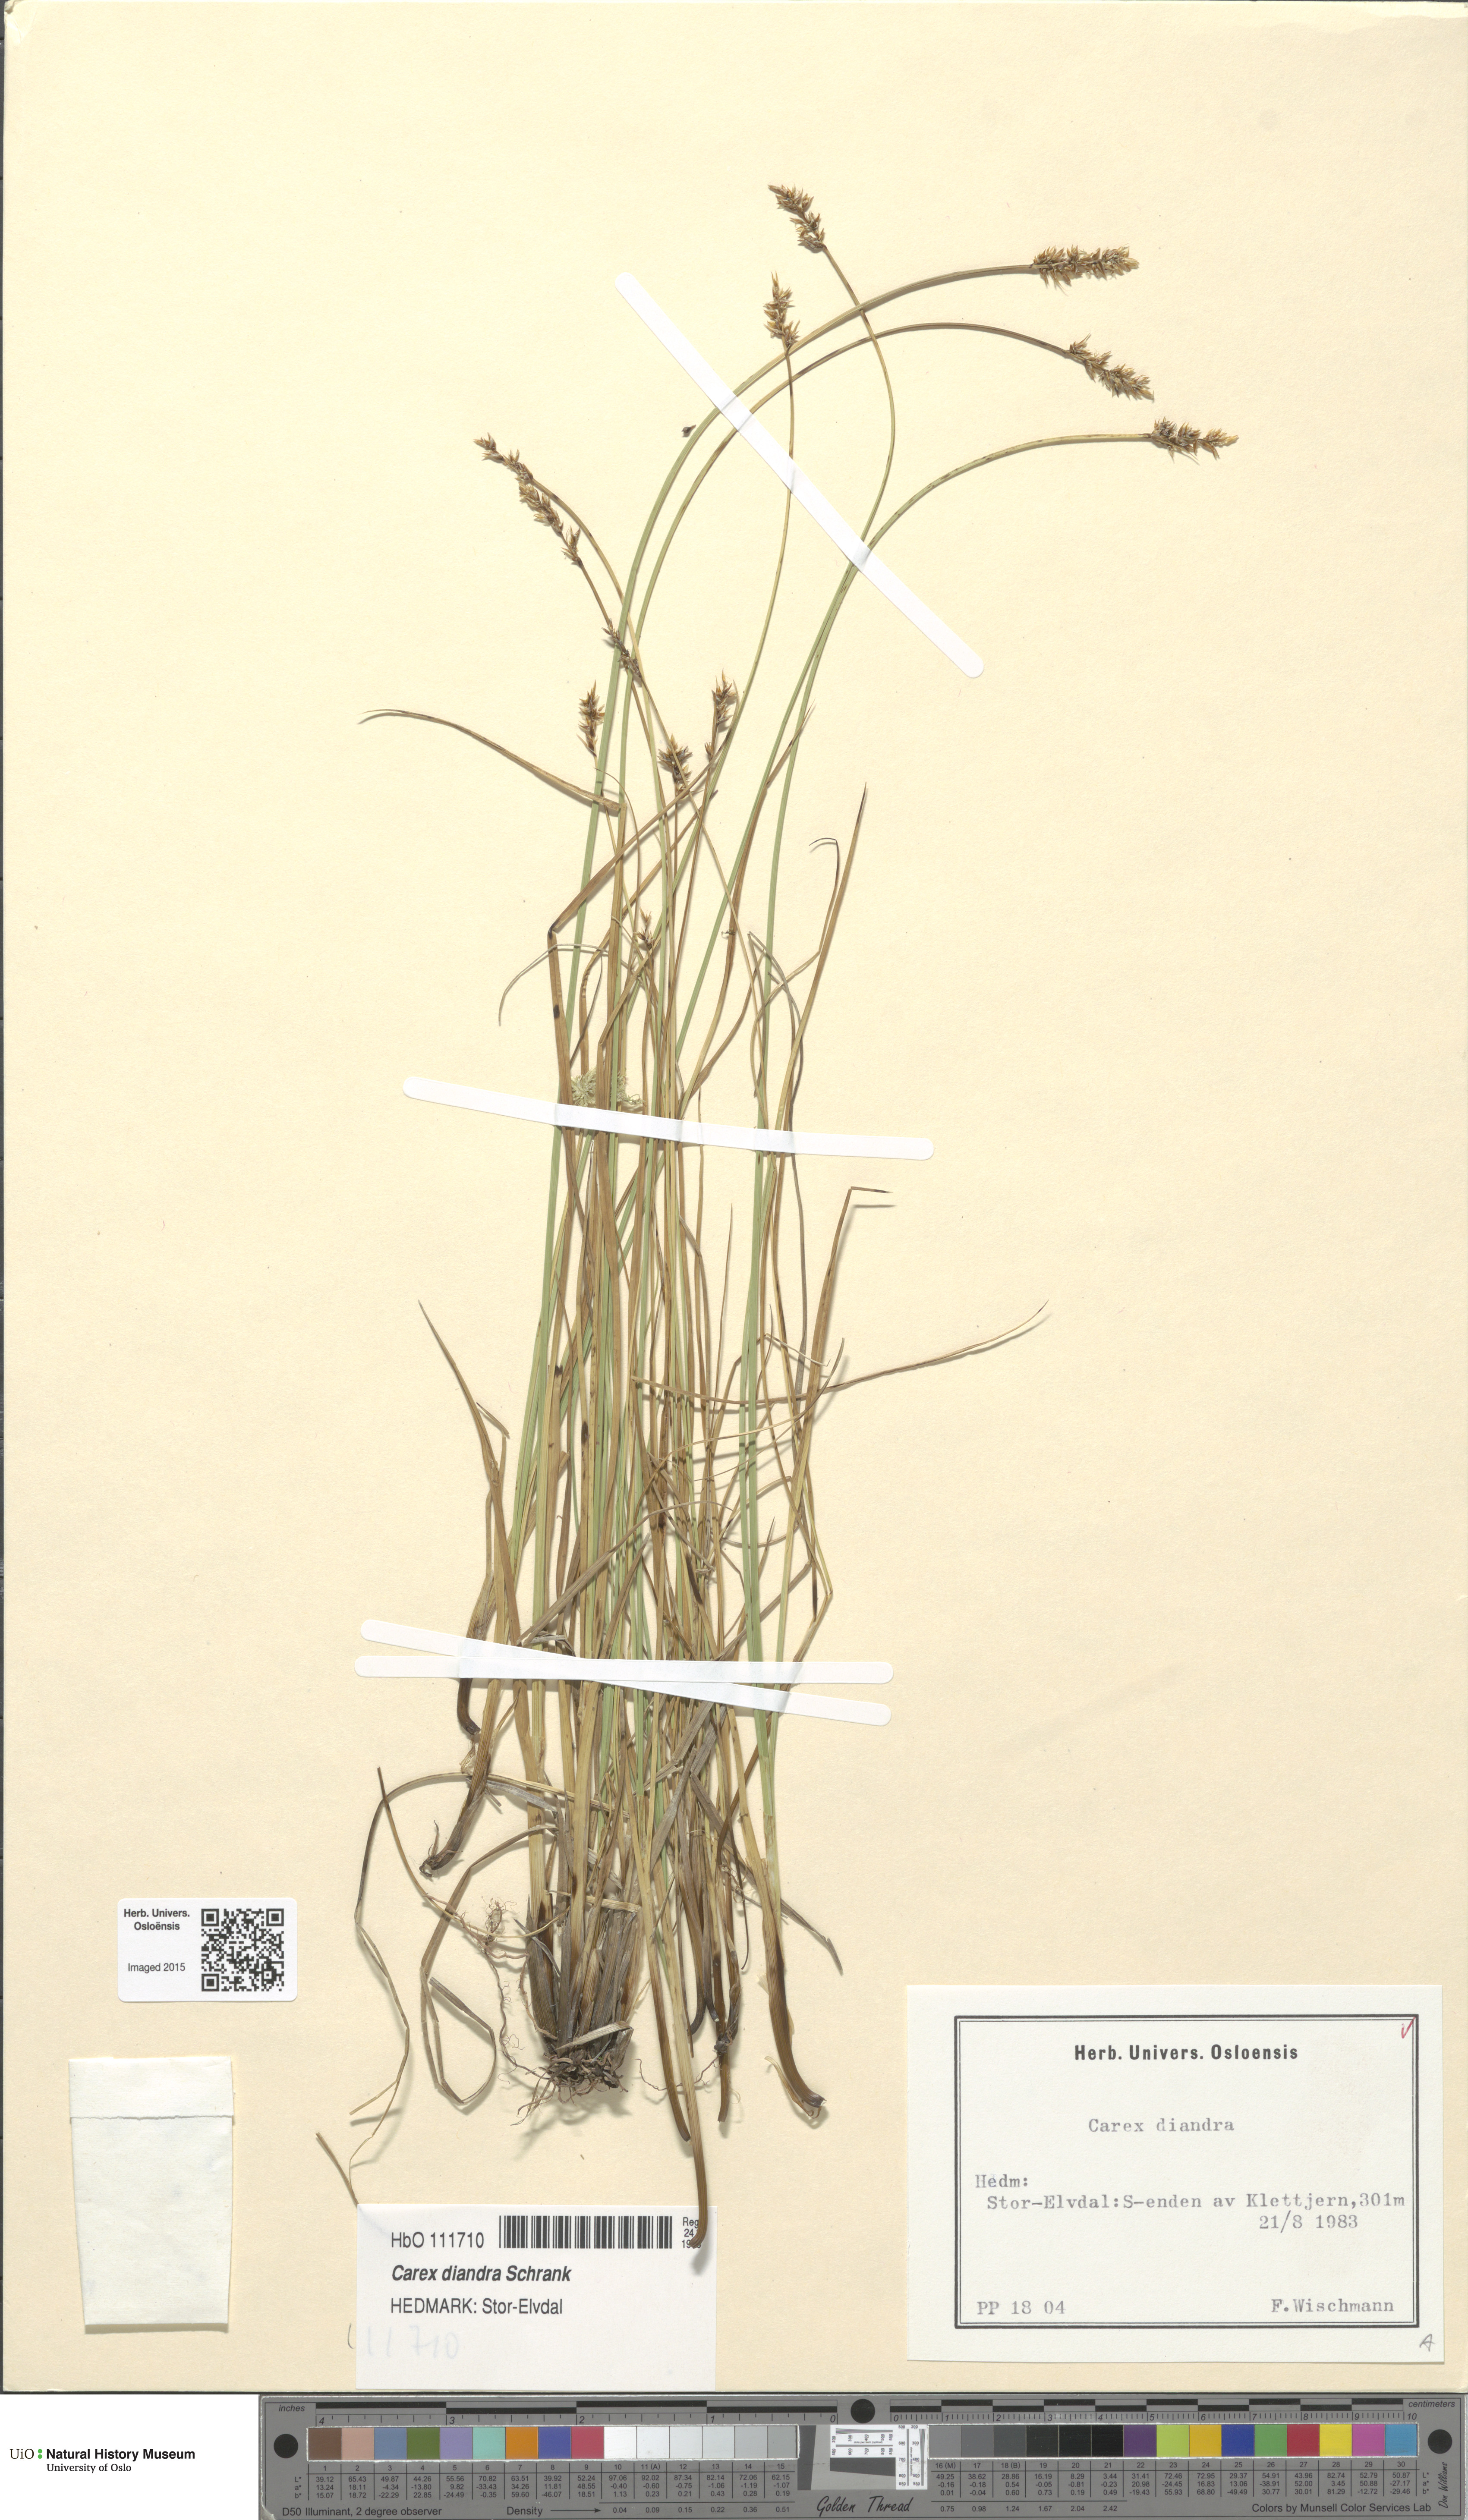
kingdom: Plantae
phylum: Tracheophyta
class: Liliopsida
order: Poales
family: Cyperaceae
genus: Carex
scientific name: Carex diandra
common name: Lesser tussock-sedge
